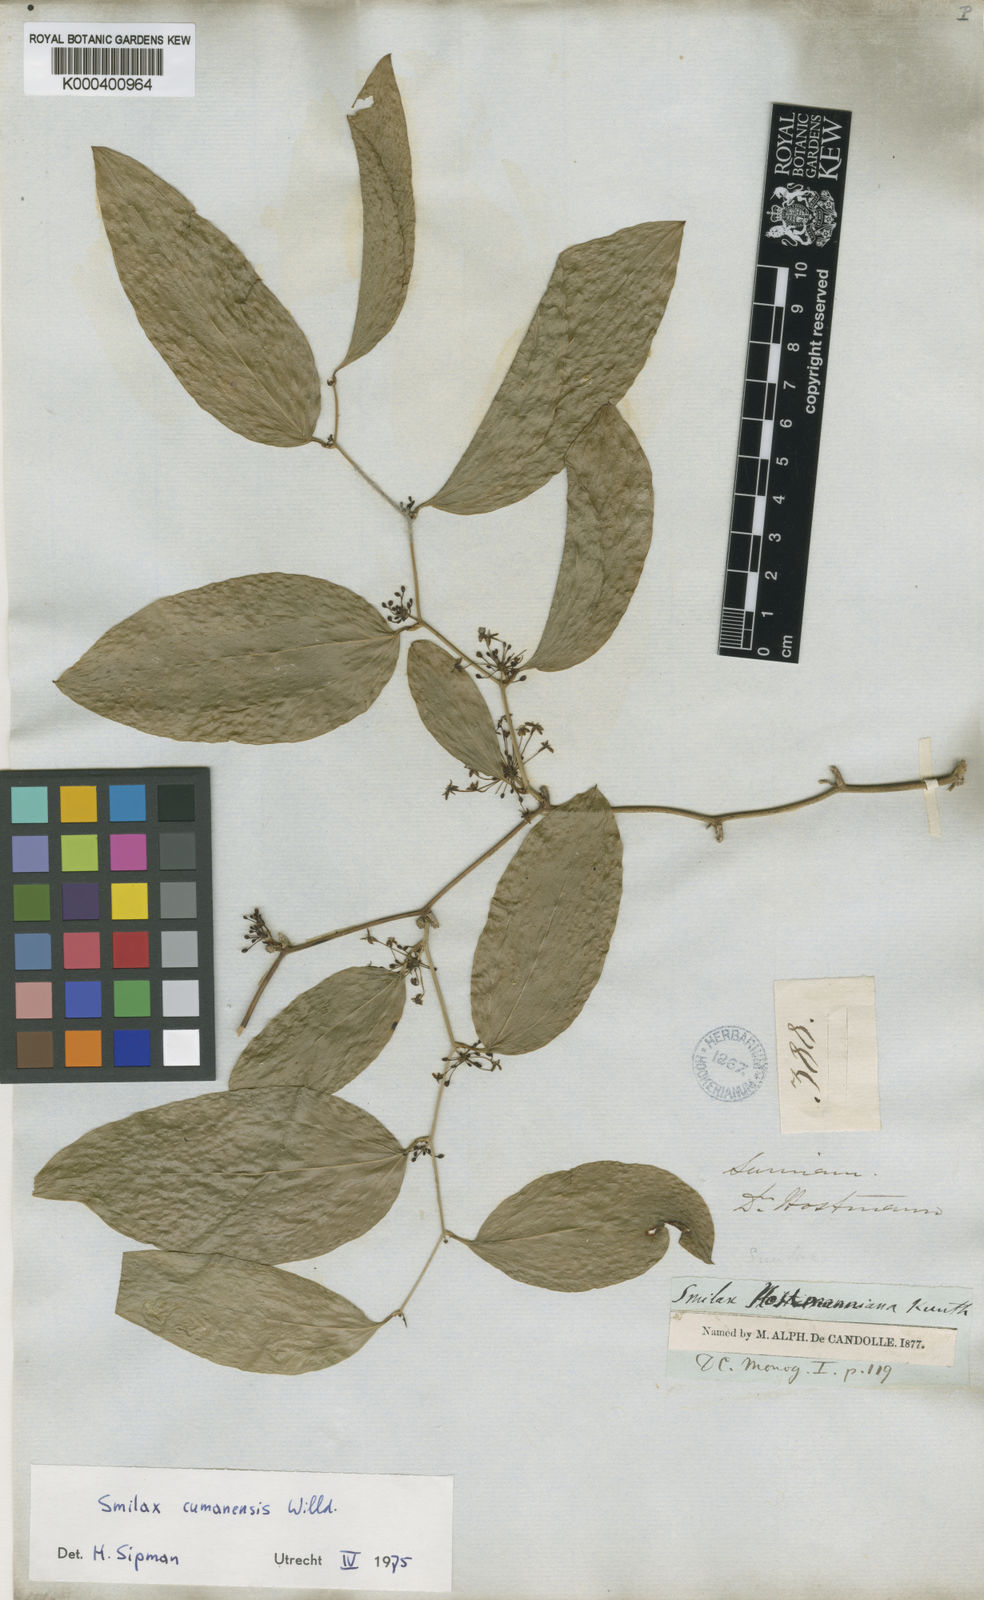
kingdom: Plantae
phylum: Tracheophyta
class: Liliopsida
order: Liliales
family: Smilacaceae
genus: Smilax
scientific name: Smilax oblongata
